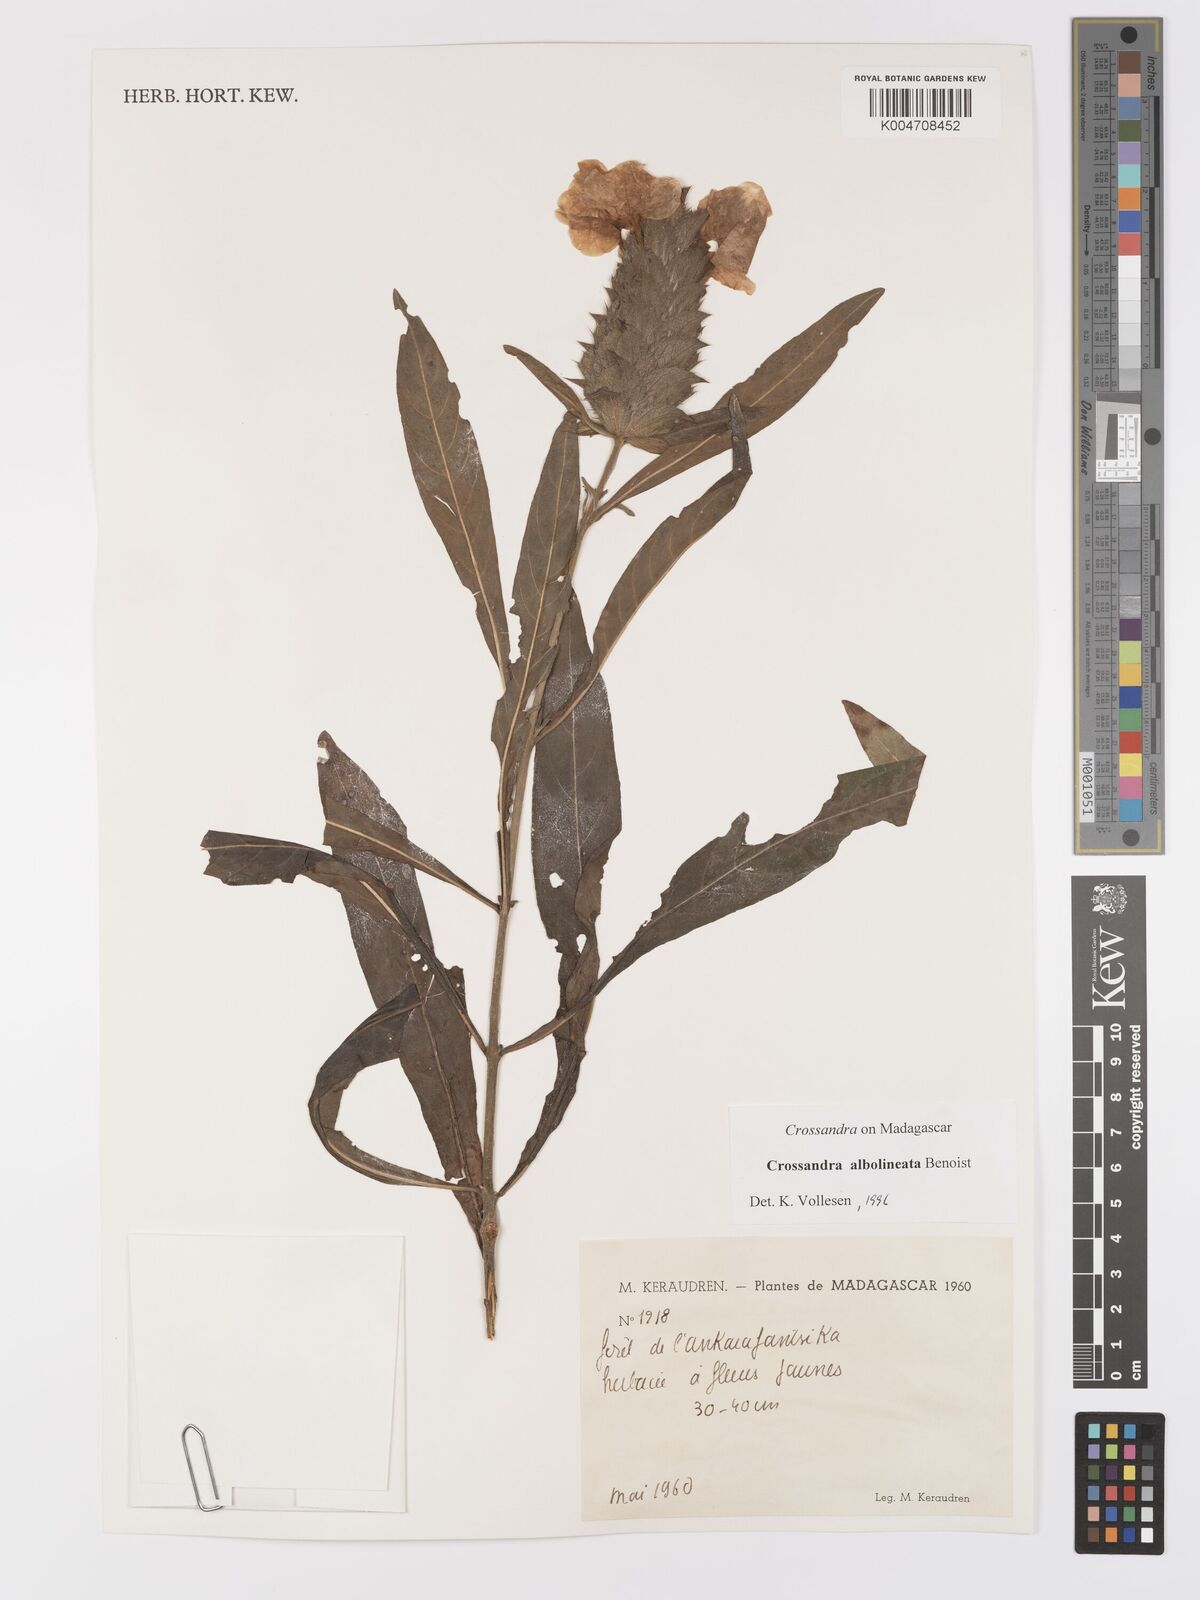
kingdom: Plantae
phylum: Tracheophyta
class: Magnoliopsida
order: Lamiales
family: Acanthaceae
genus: Crossandra
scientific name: Crossandra albolineata
